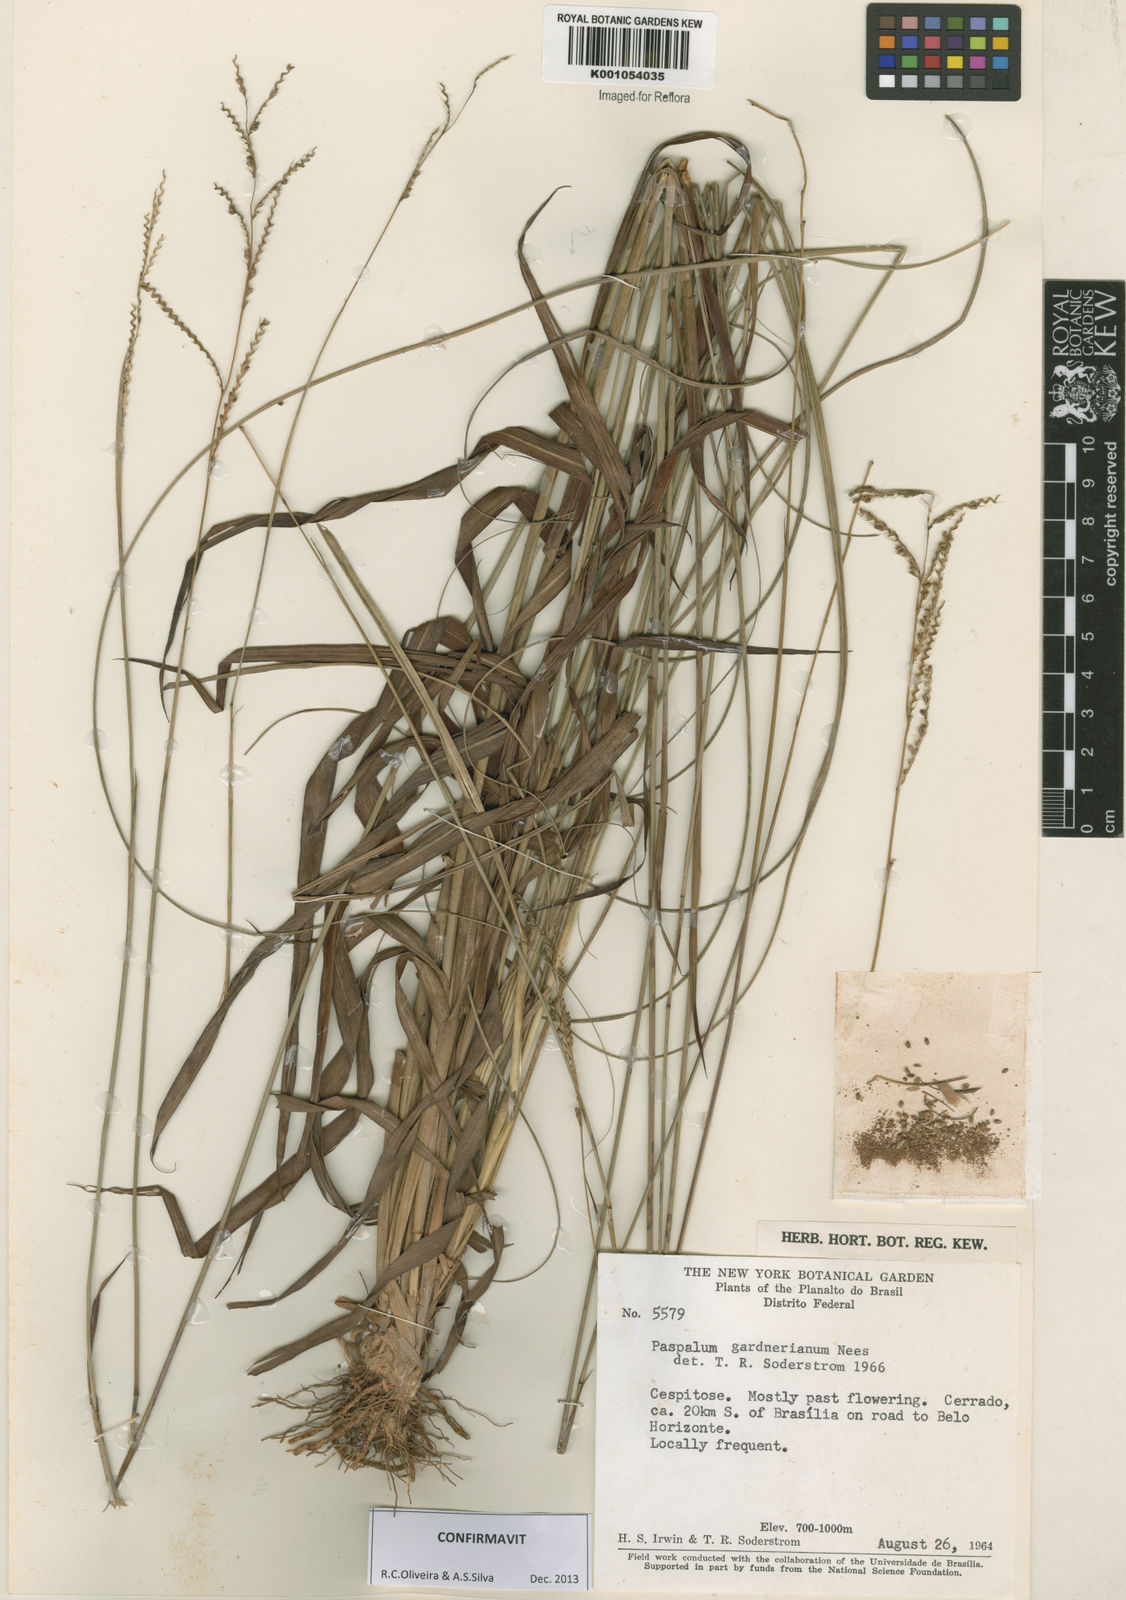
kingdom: Plantae
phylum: Tracheophyta
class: Liliopsida
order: Poales
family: Poaceae
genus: Paspalum
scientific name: Paspalum gardnerianum
